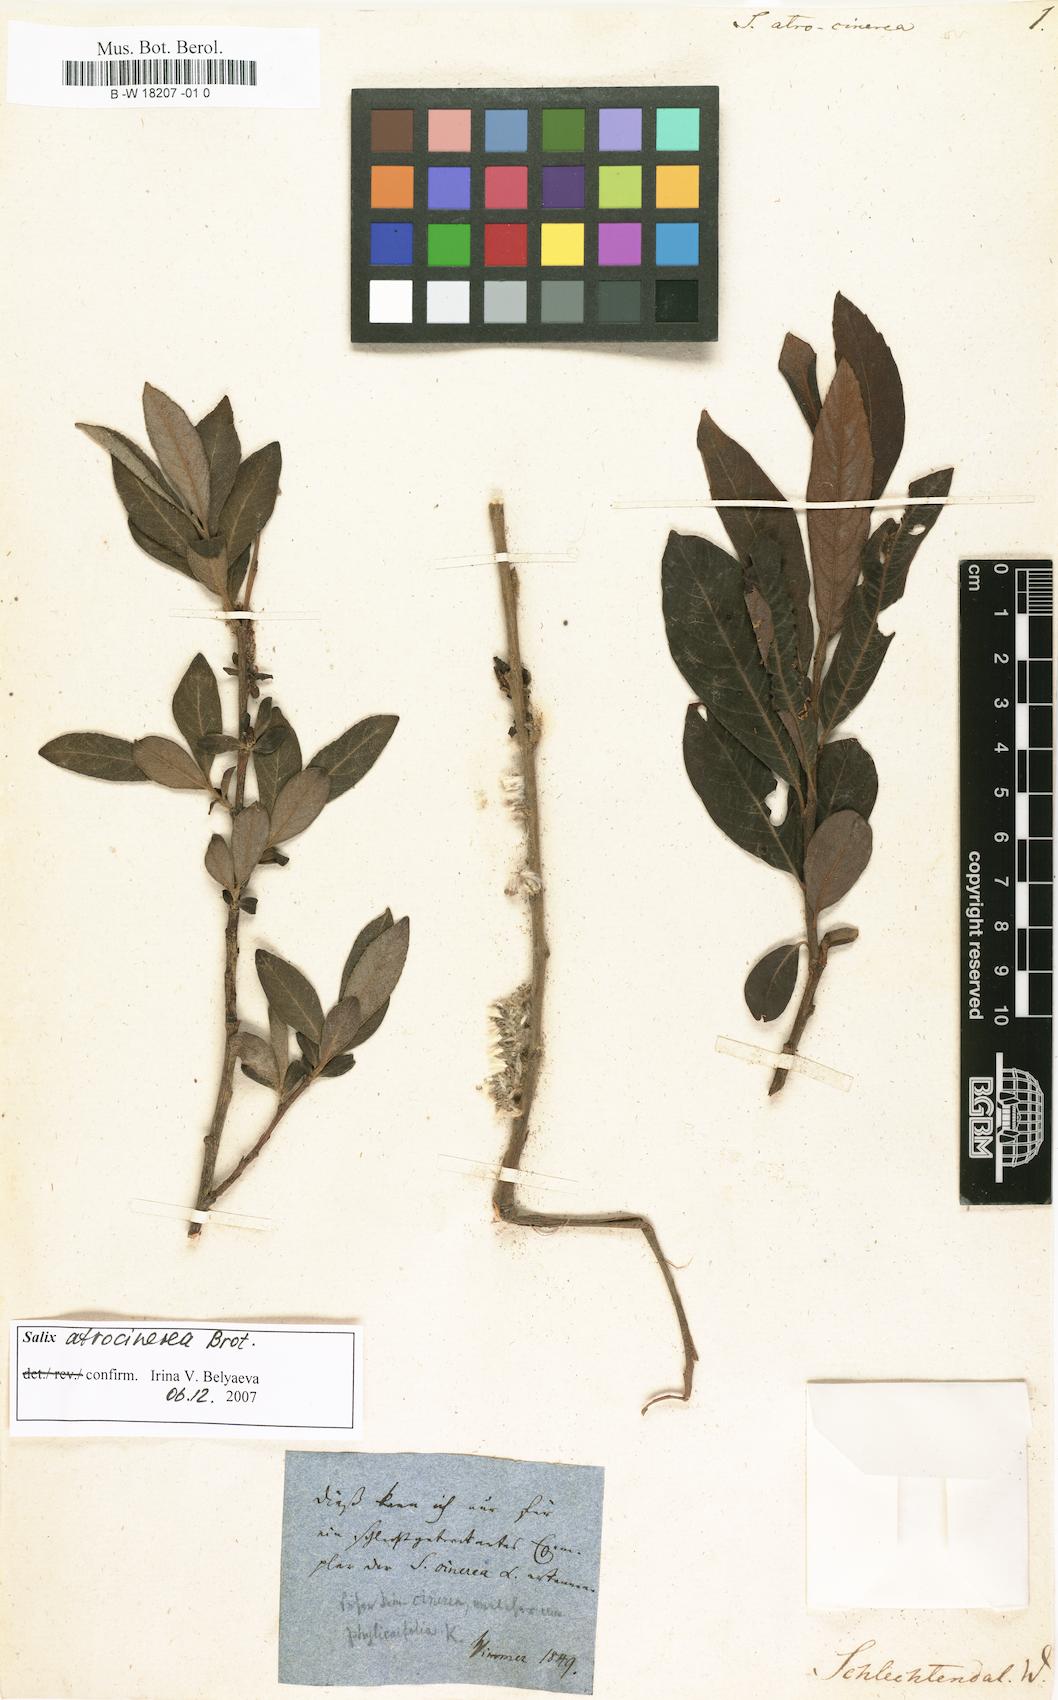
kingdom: Plantae
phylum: Tracheophyta
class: Magnoliopsida
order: Malpighiales
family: Salicaceae
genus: Salix
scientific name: Salix atrocinerea
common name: Rusty willow
